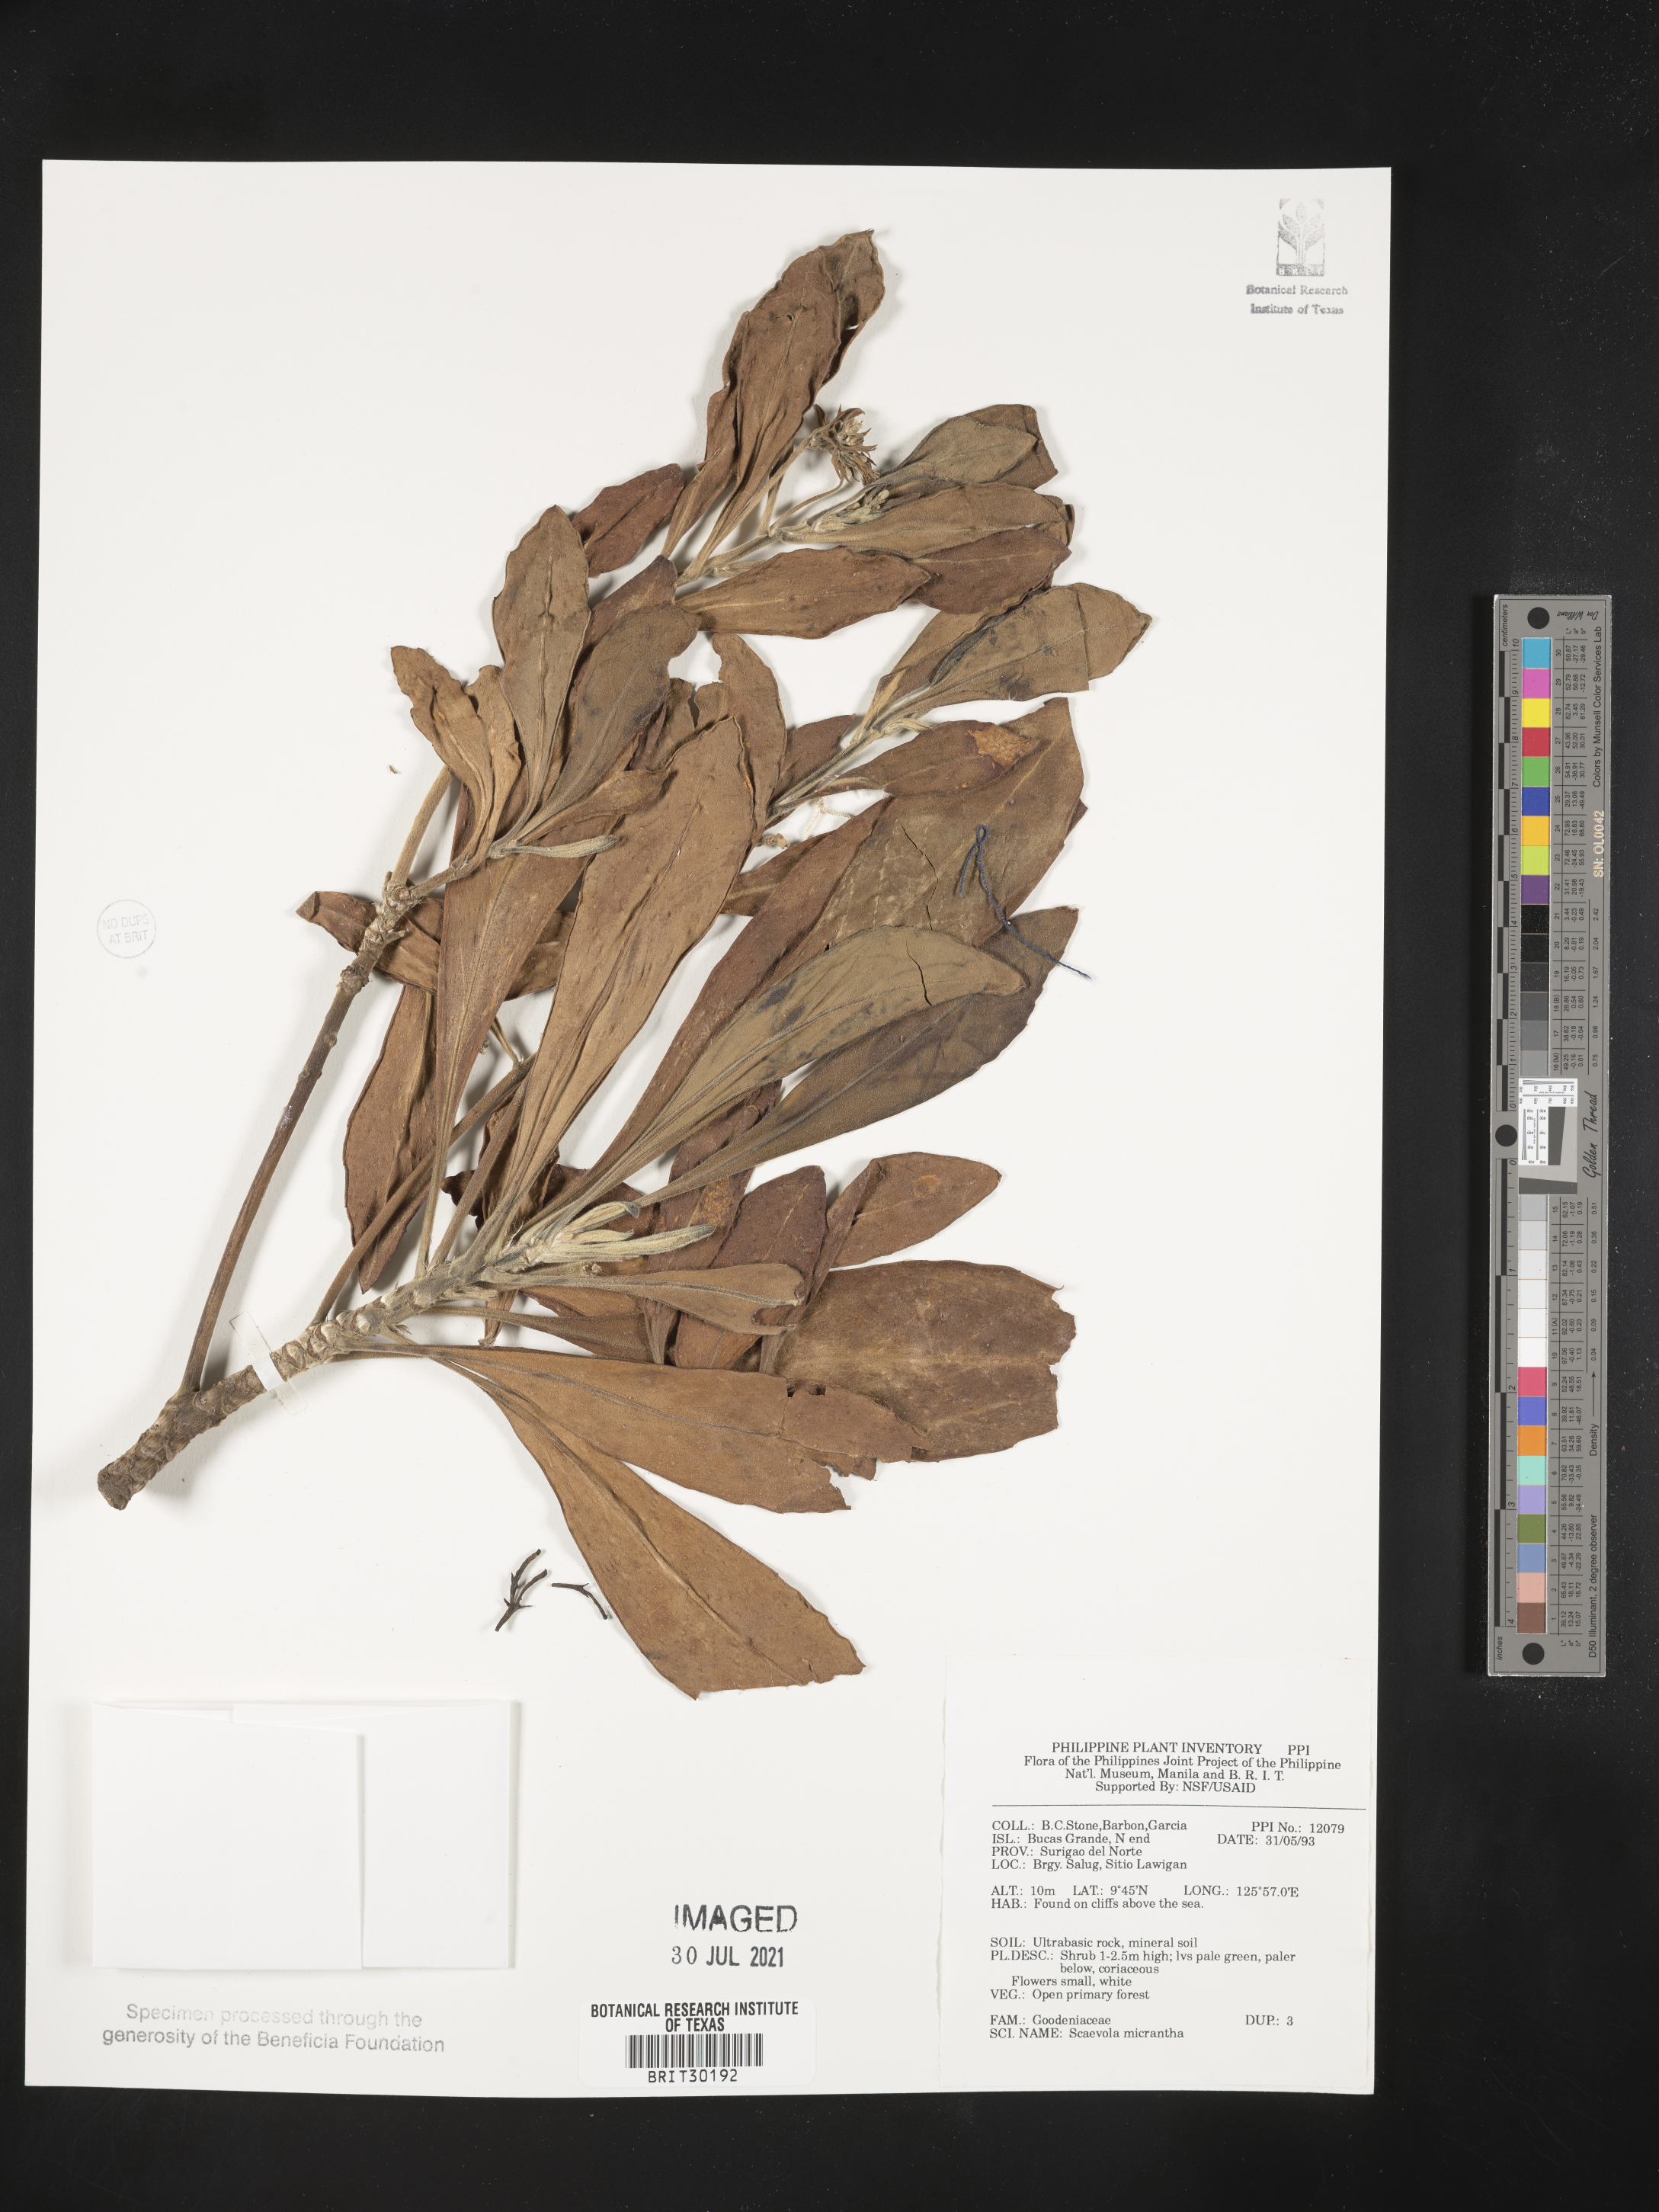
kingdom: Plantae
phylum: Tracheophyta
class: Magnoliopsida
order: Asterales
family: Goodeniaceae
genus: Scaevola
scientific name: Scaevola micrantha
